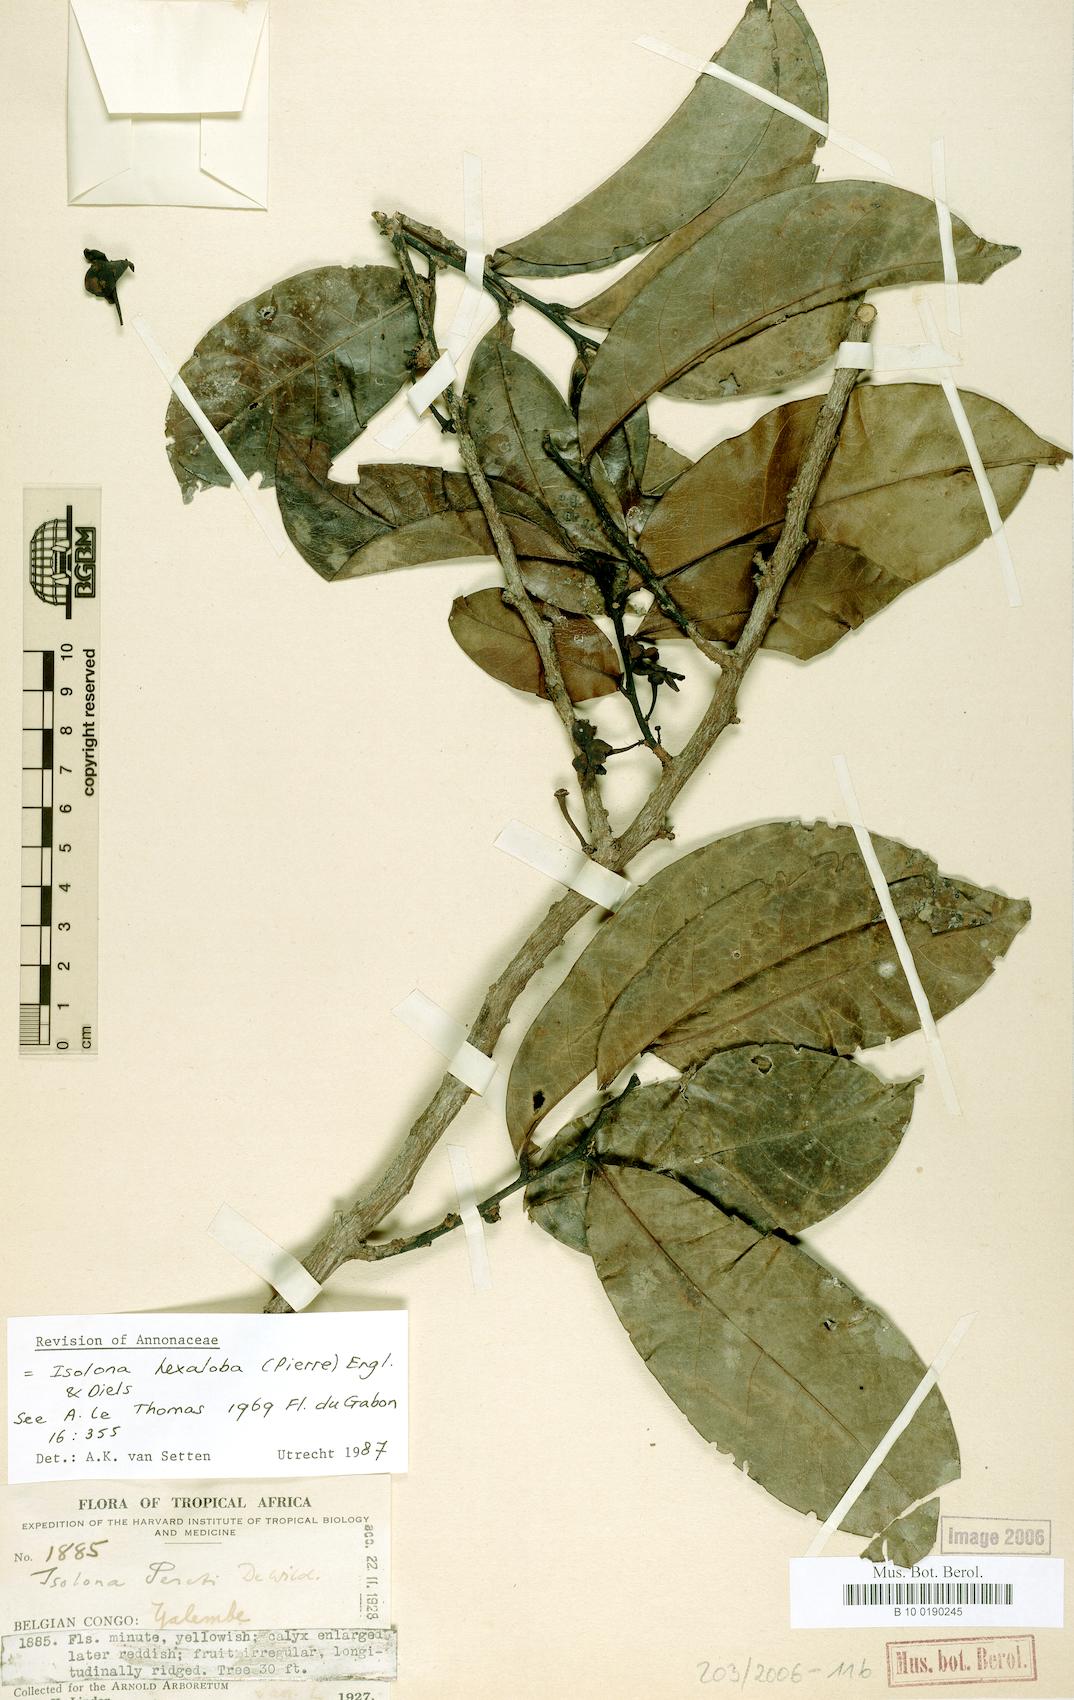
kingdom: Plantae
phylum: Tracheophyta
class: Magnoliopsida
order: Magnoliales
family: Annonaceae
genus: Isolona
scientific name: Isolona hexaloba
